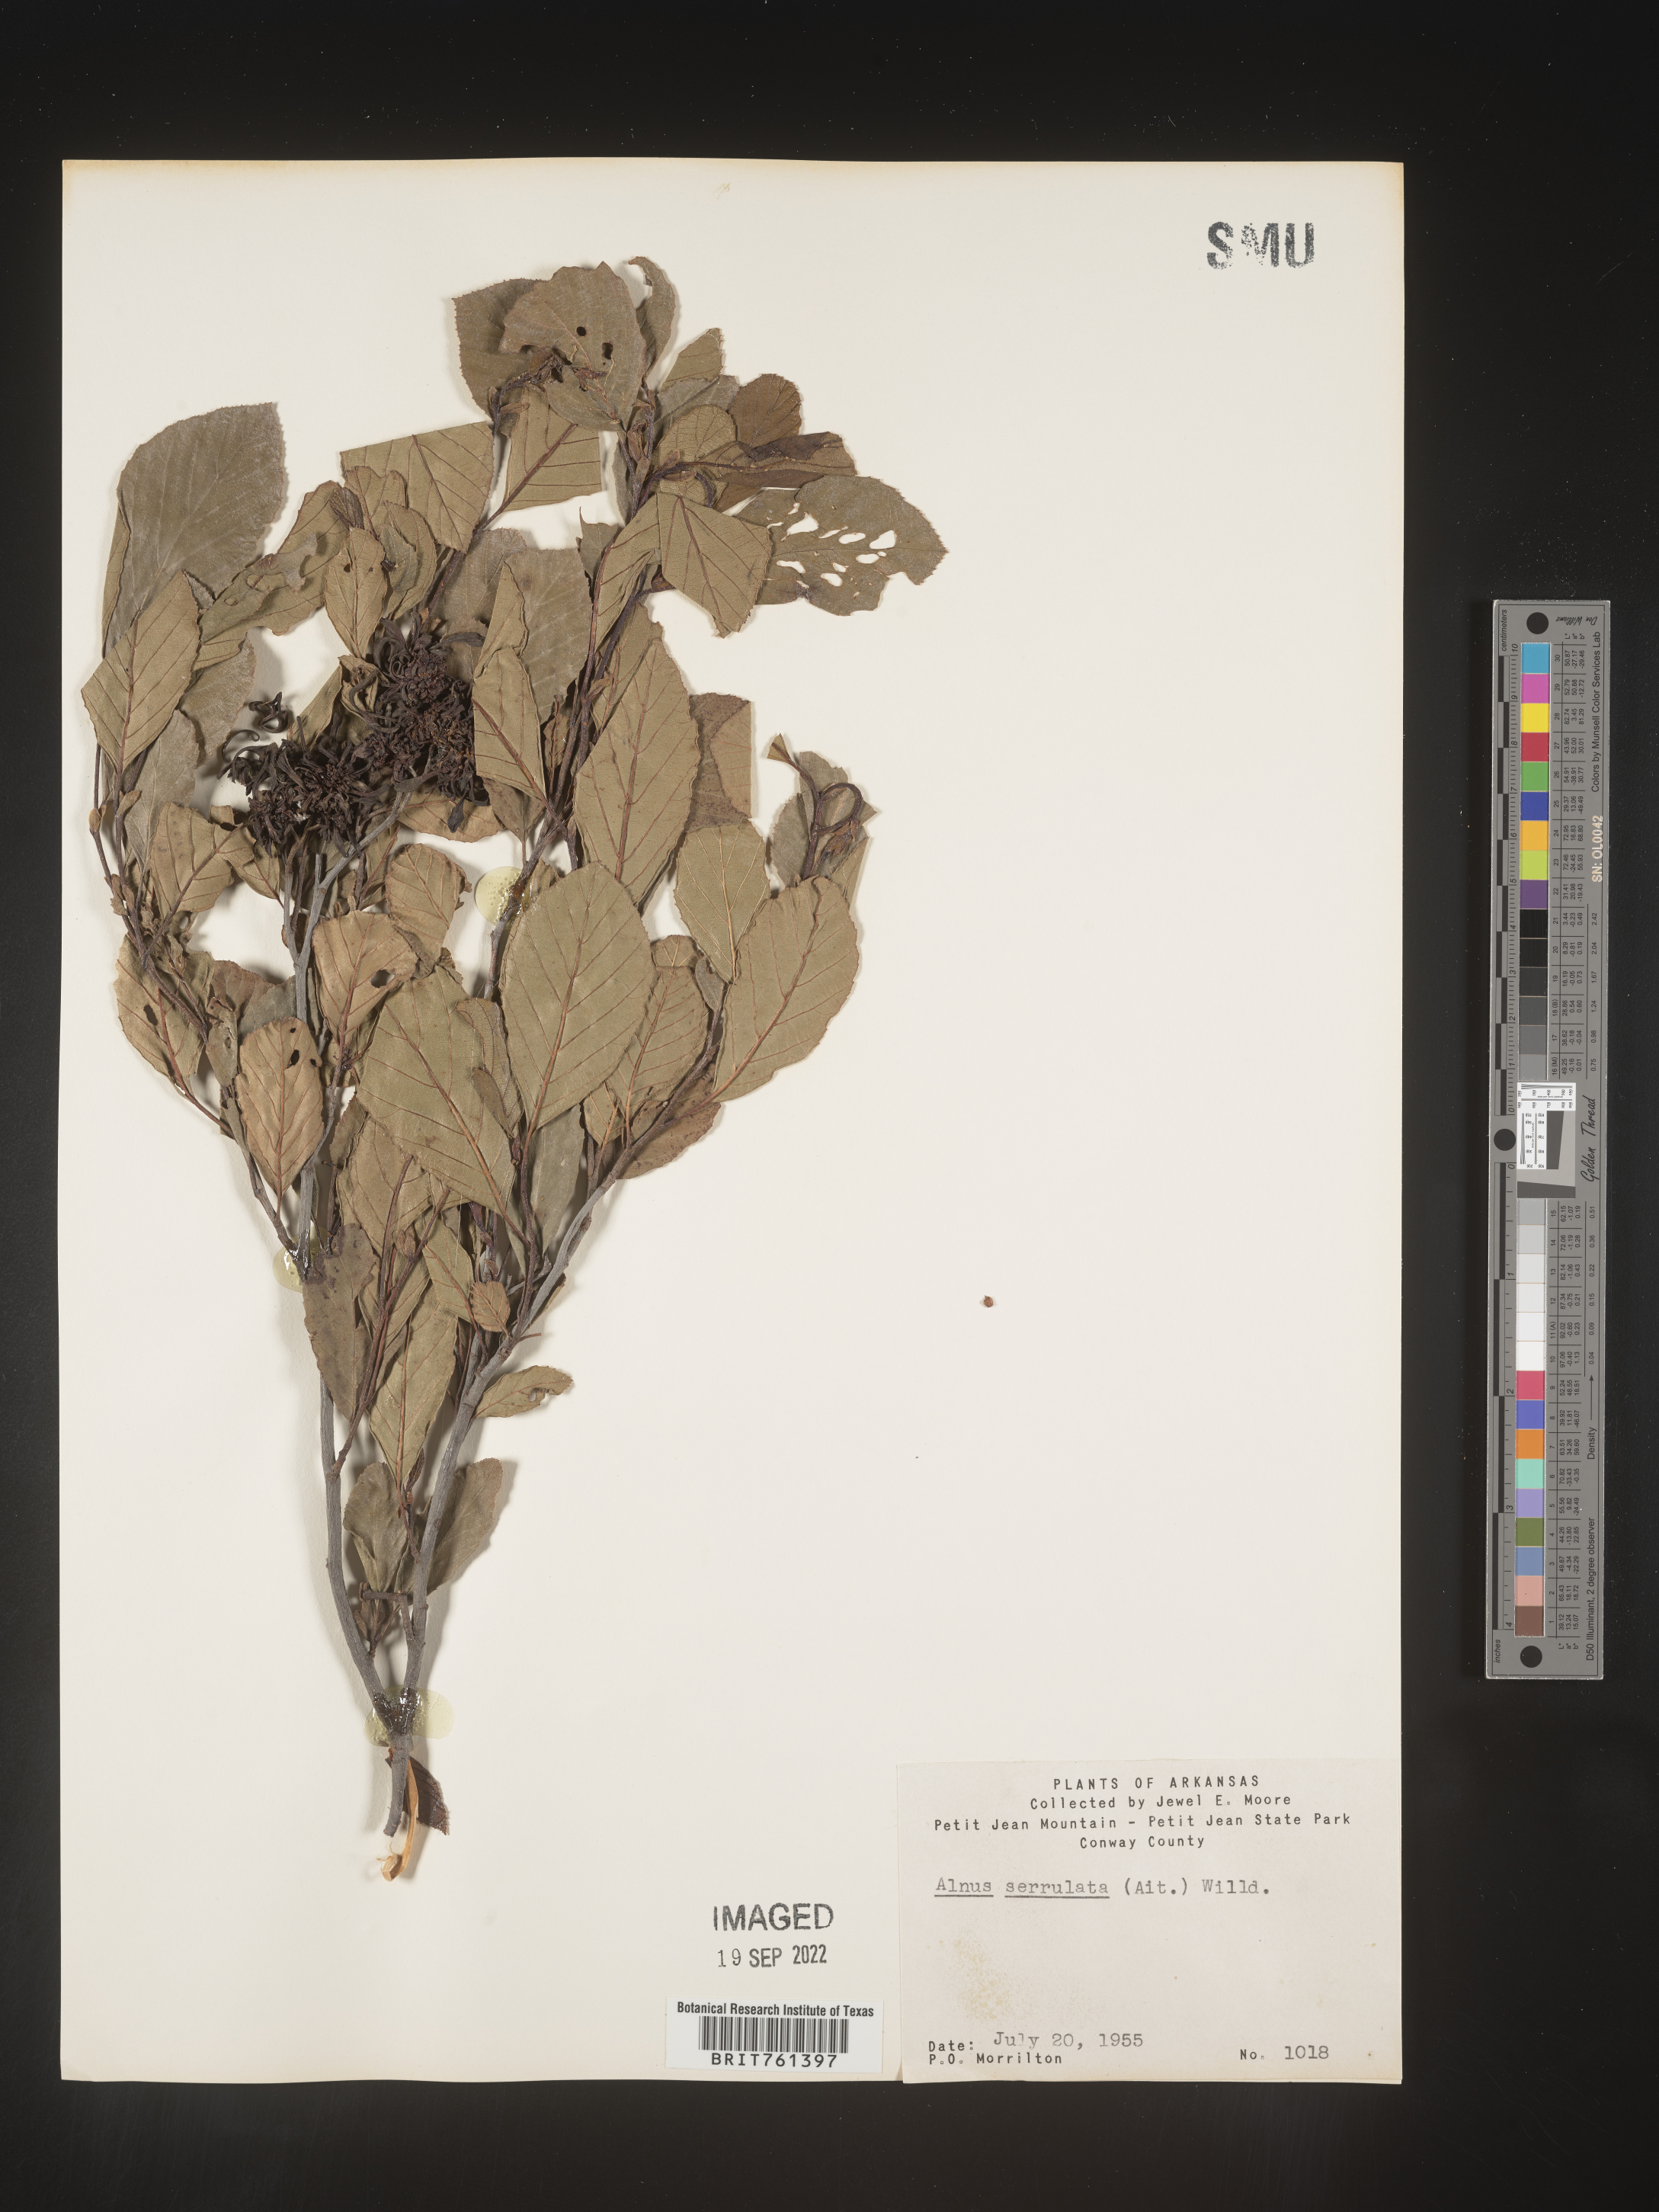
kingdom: Plantae
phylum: Tracheophyta
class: Magnoliopsida
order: Fagales
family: Betulaceae
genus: Alnus
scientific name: Alnus serrulata
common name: Hazel alder
